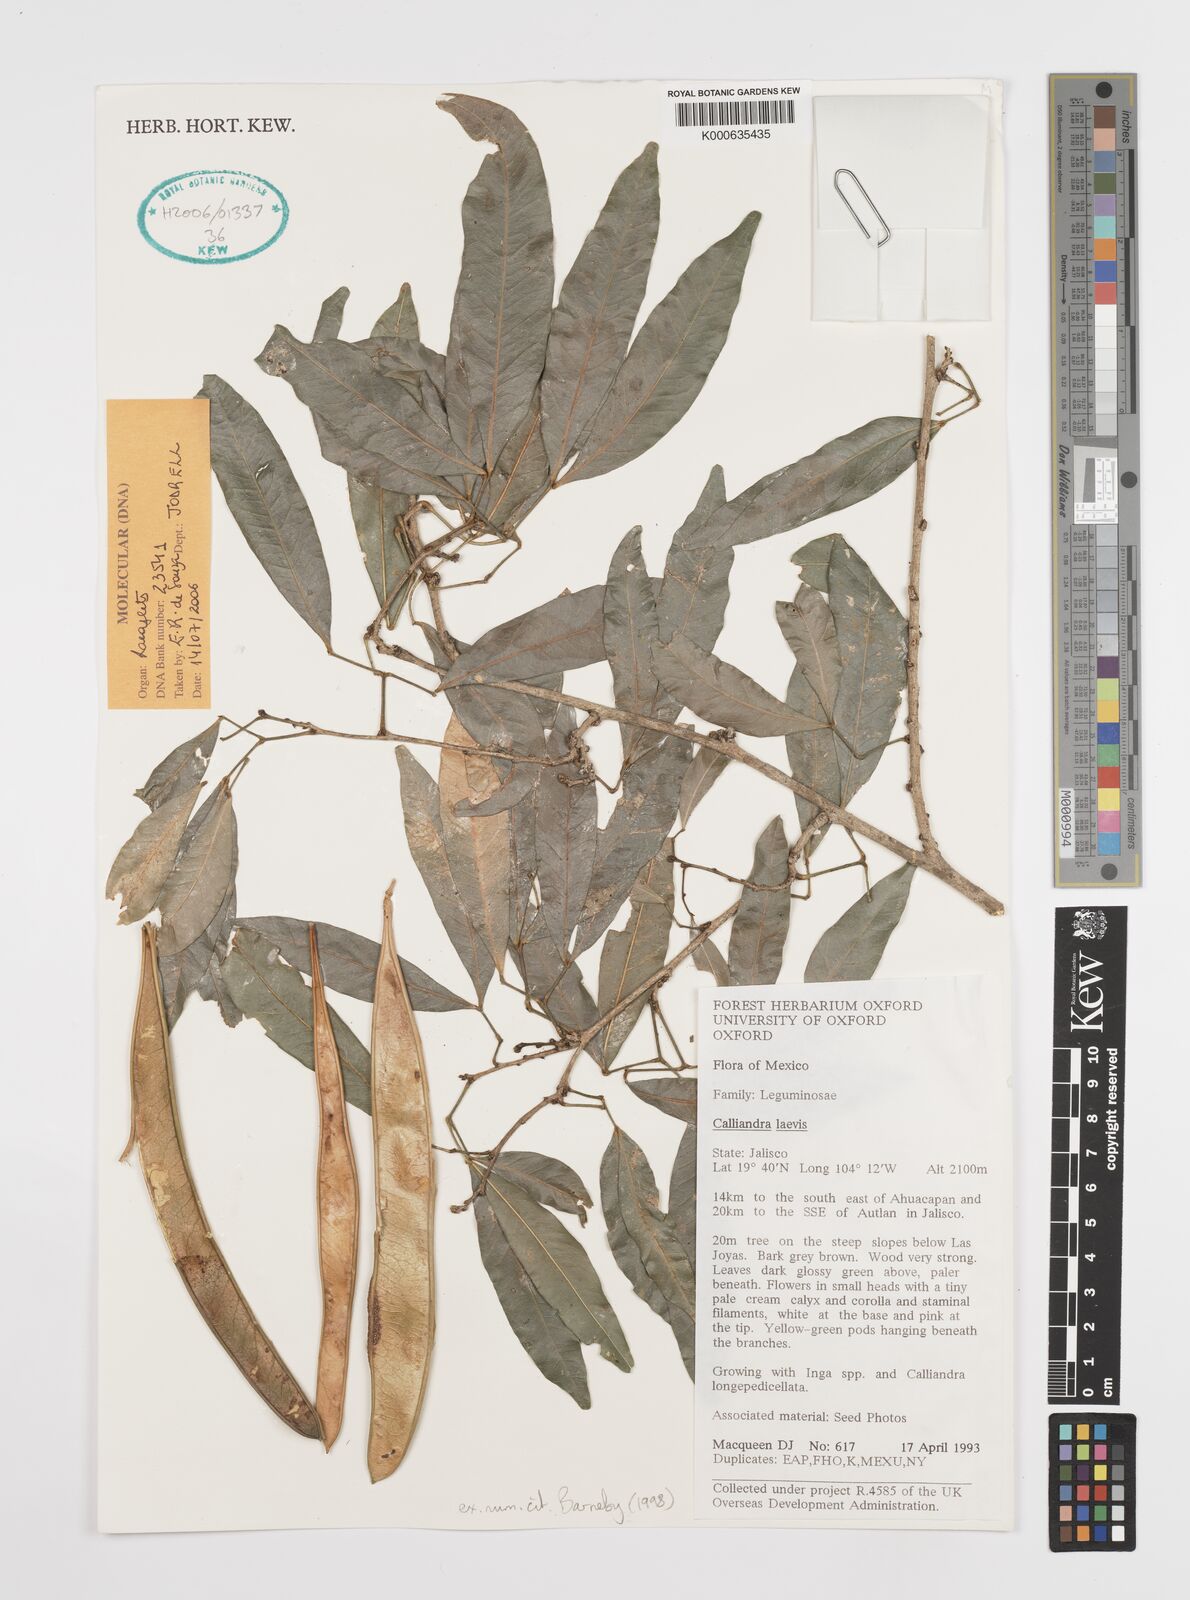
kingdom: Plantae
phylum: Tracheophyta
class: Magnoliopsida
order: Fabales
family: Fabaceae
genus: Calliandra
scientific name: Calliandra laevis
